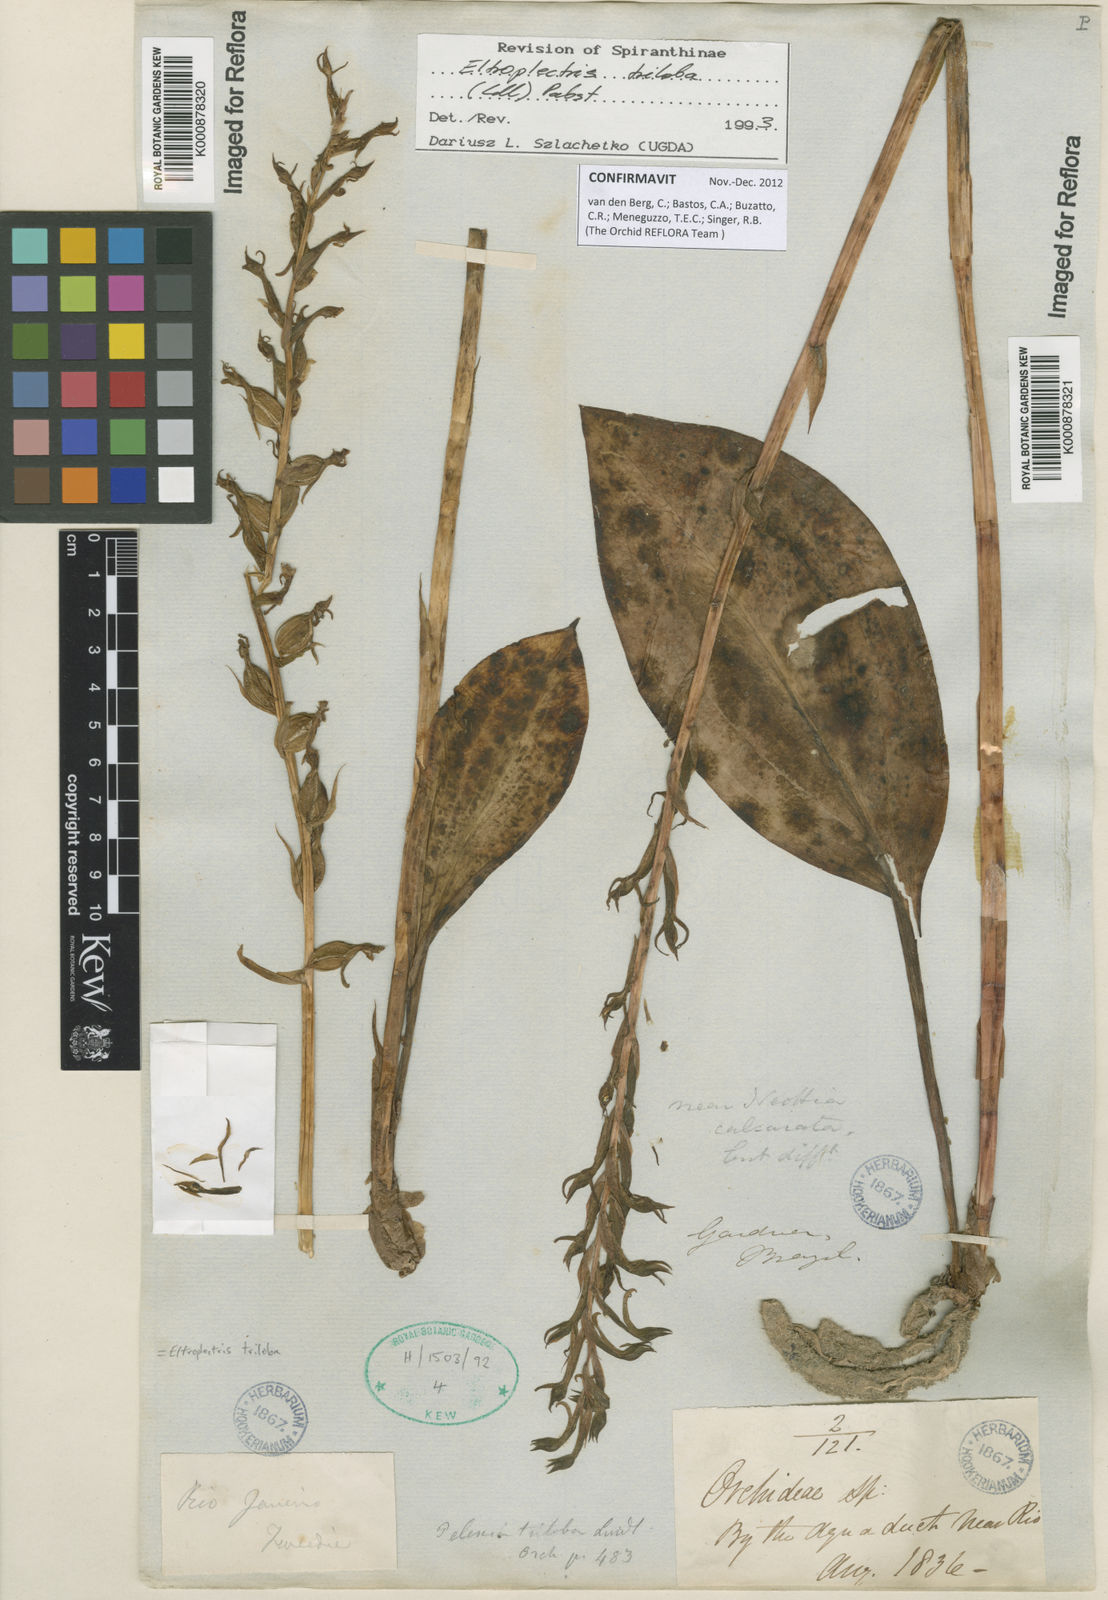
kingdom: Plantae
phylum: Tracheophyta
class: Liliopsida
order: Asparagales
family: Orchidaceae
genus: Eltroplectris
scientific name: Eltroplectris triloba
